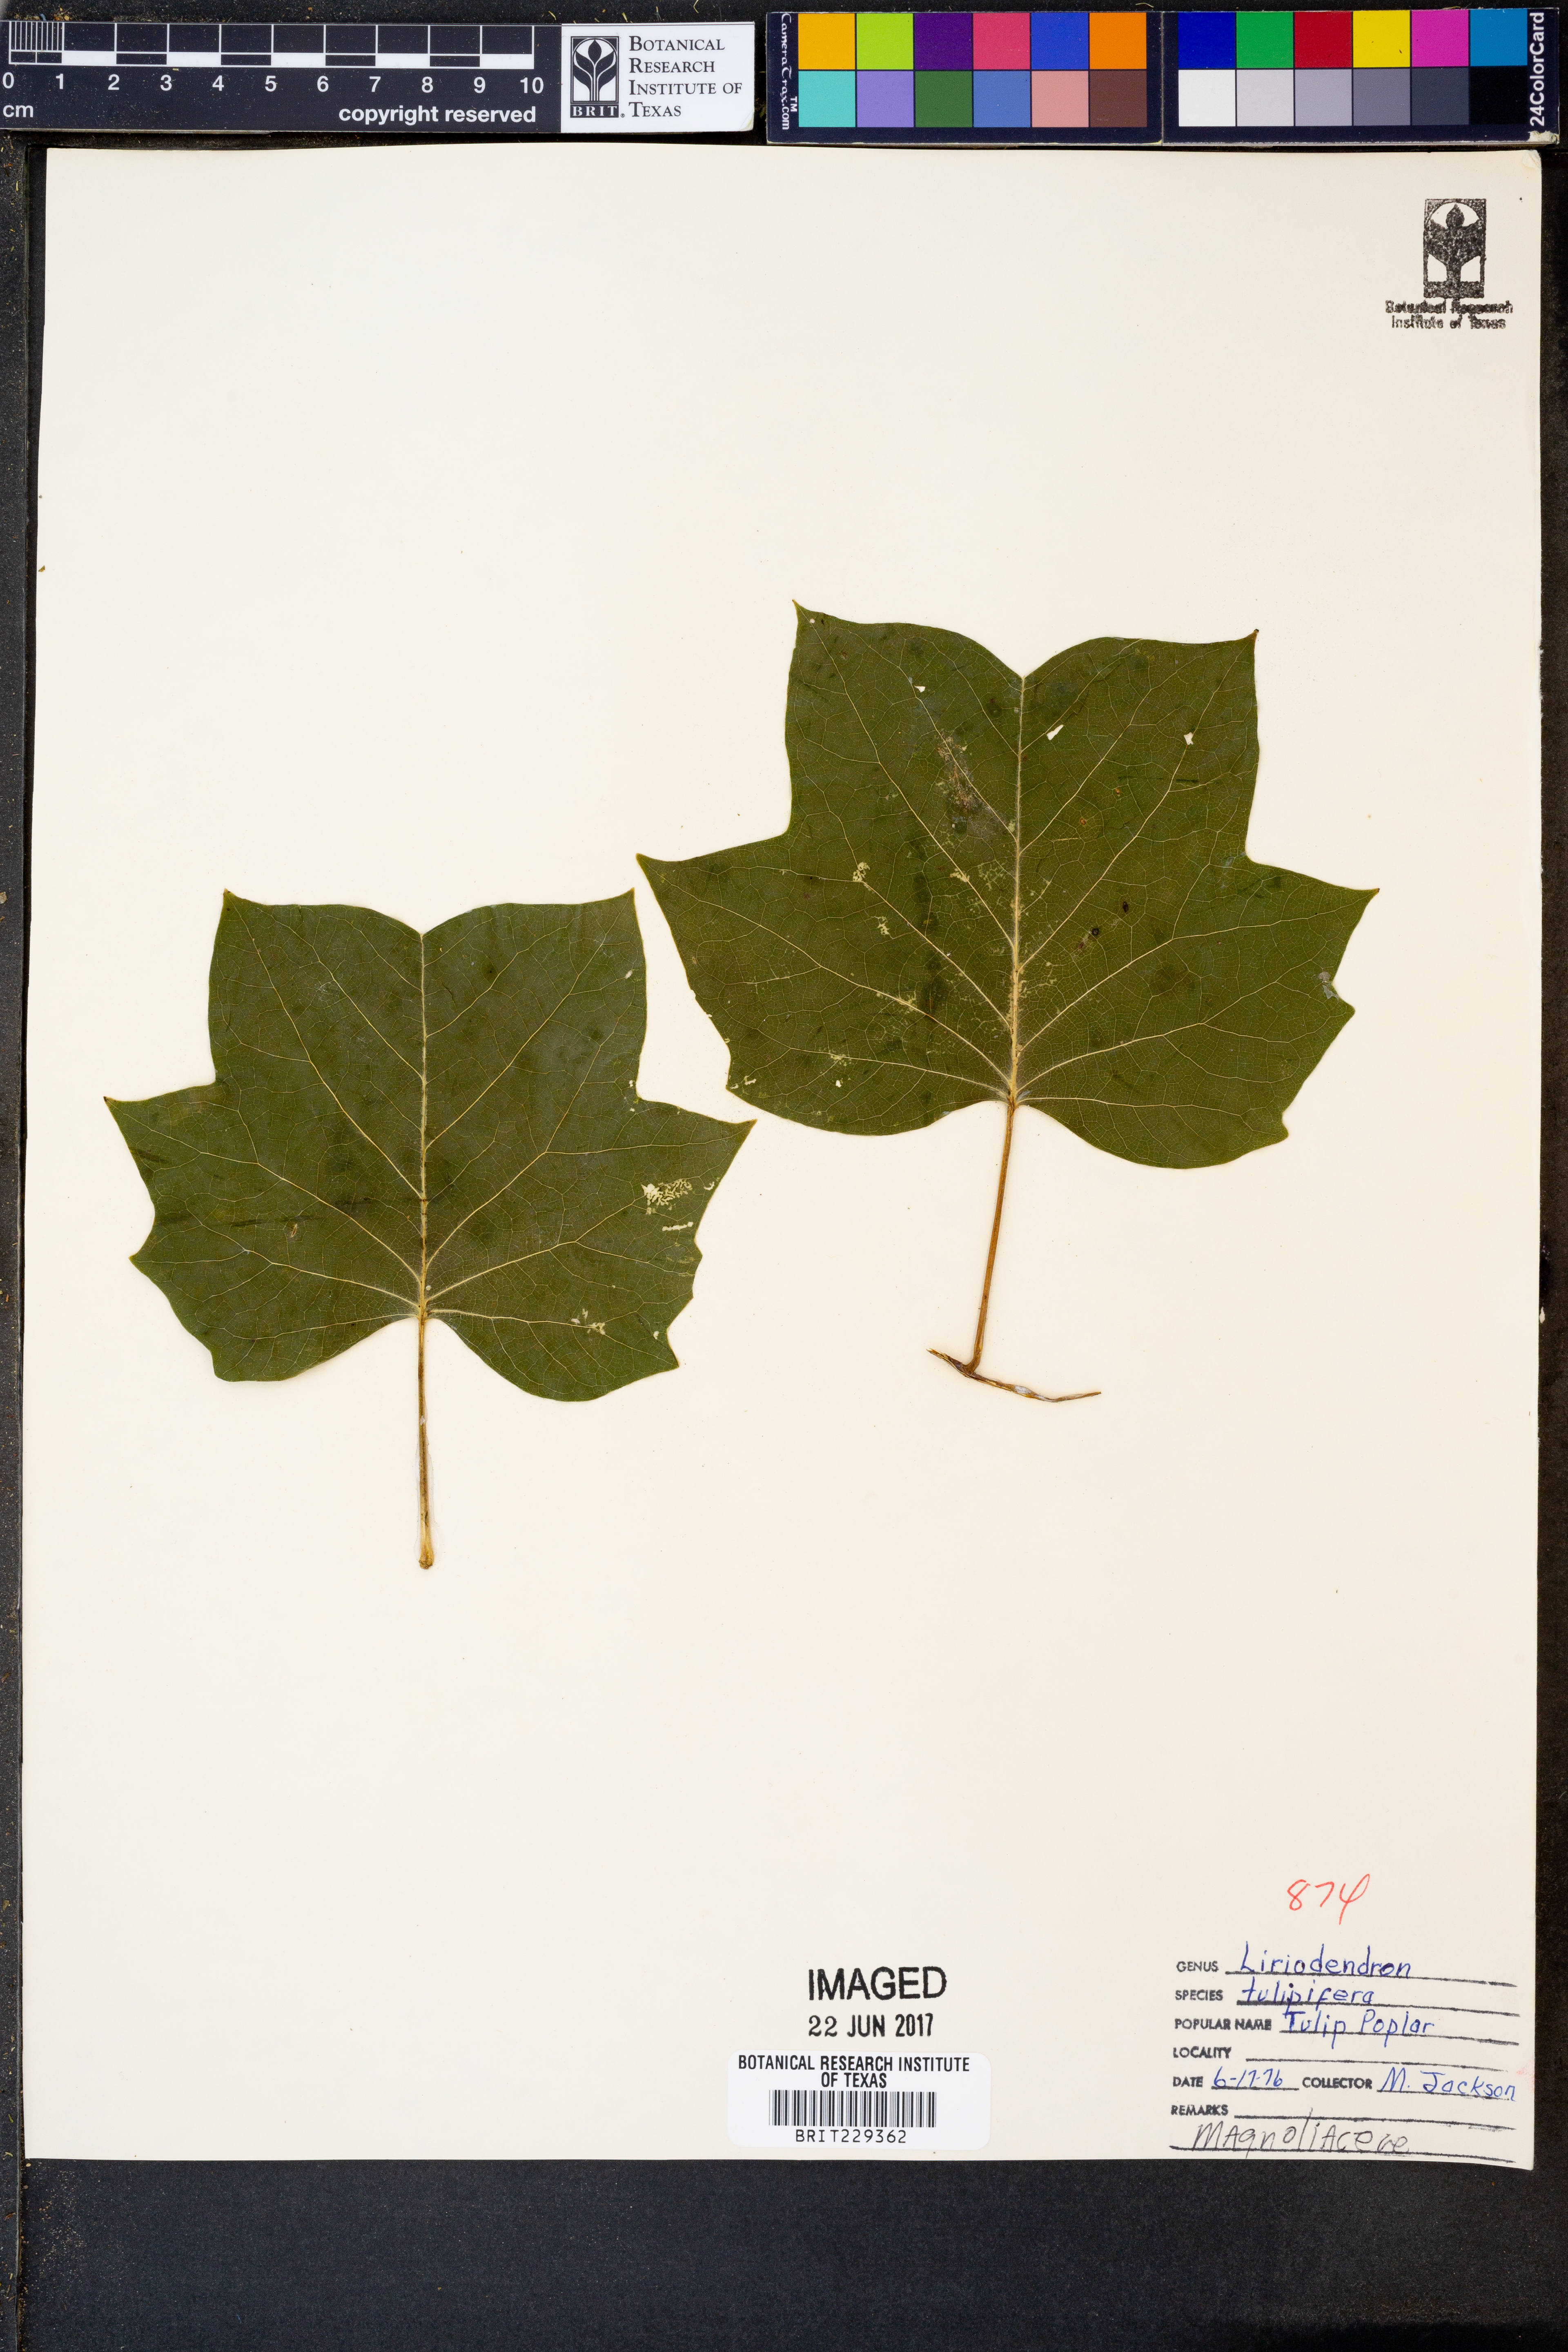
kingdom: Plantae
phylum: Tracheophyta
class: Magnoliopsida
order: Magnoliales
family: Magnoliaceae
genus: Liriodendron
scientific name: Liriodendron tulipifera
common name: Tulip tree
